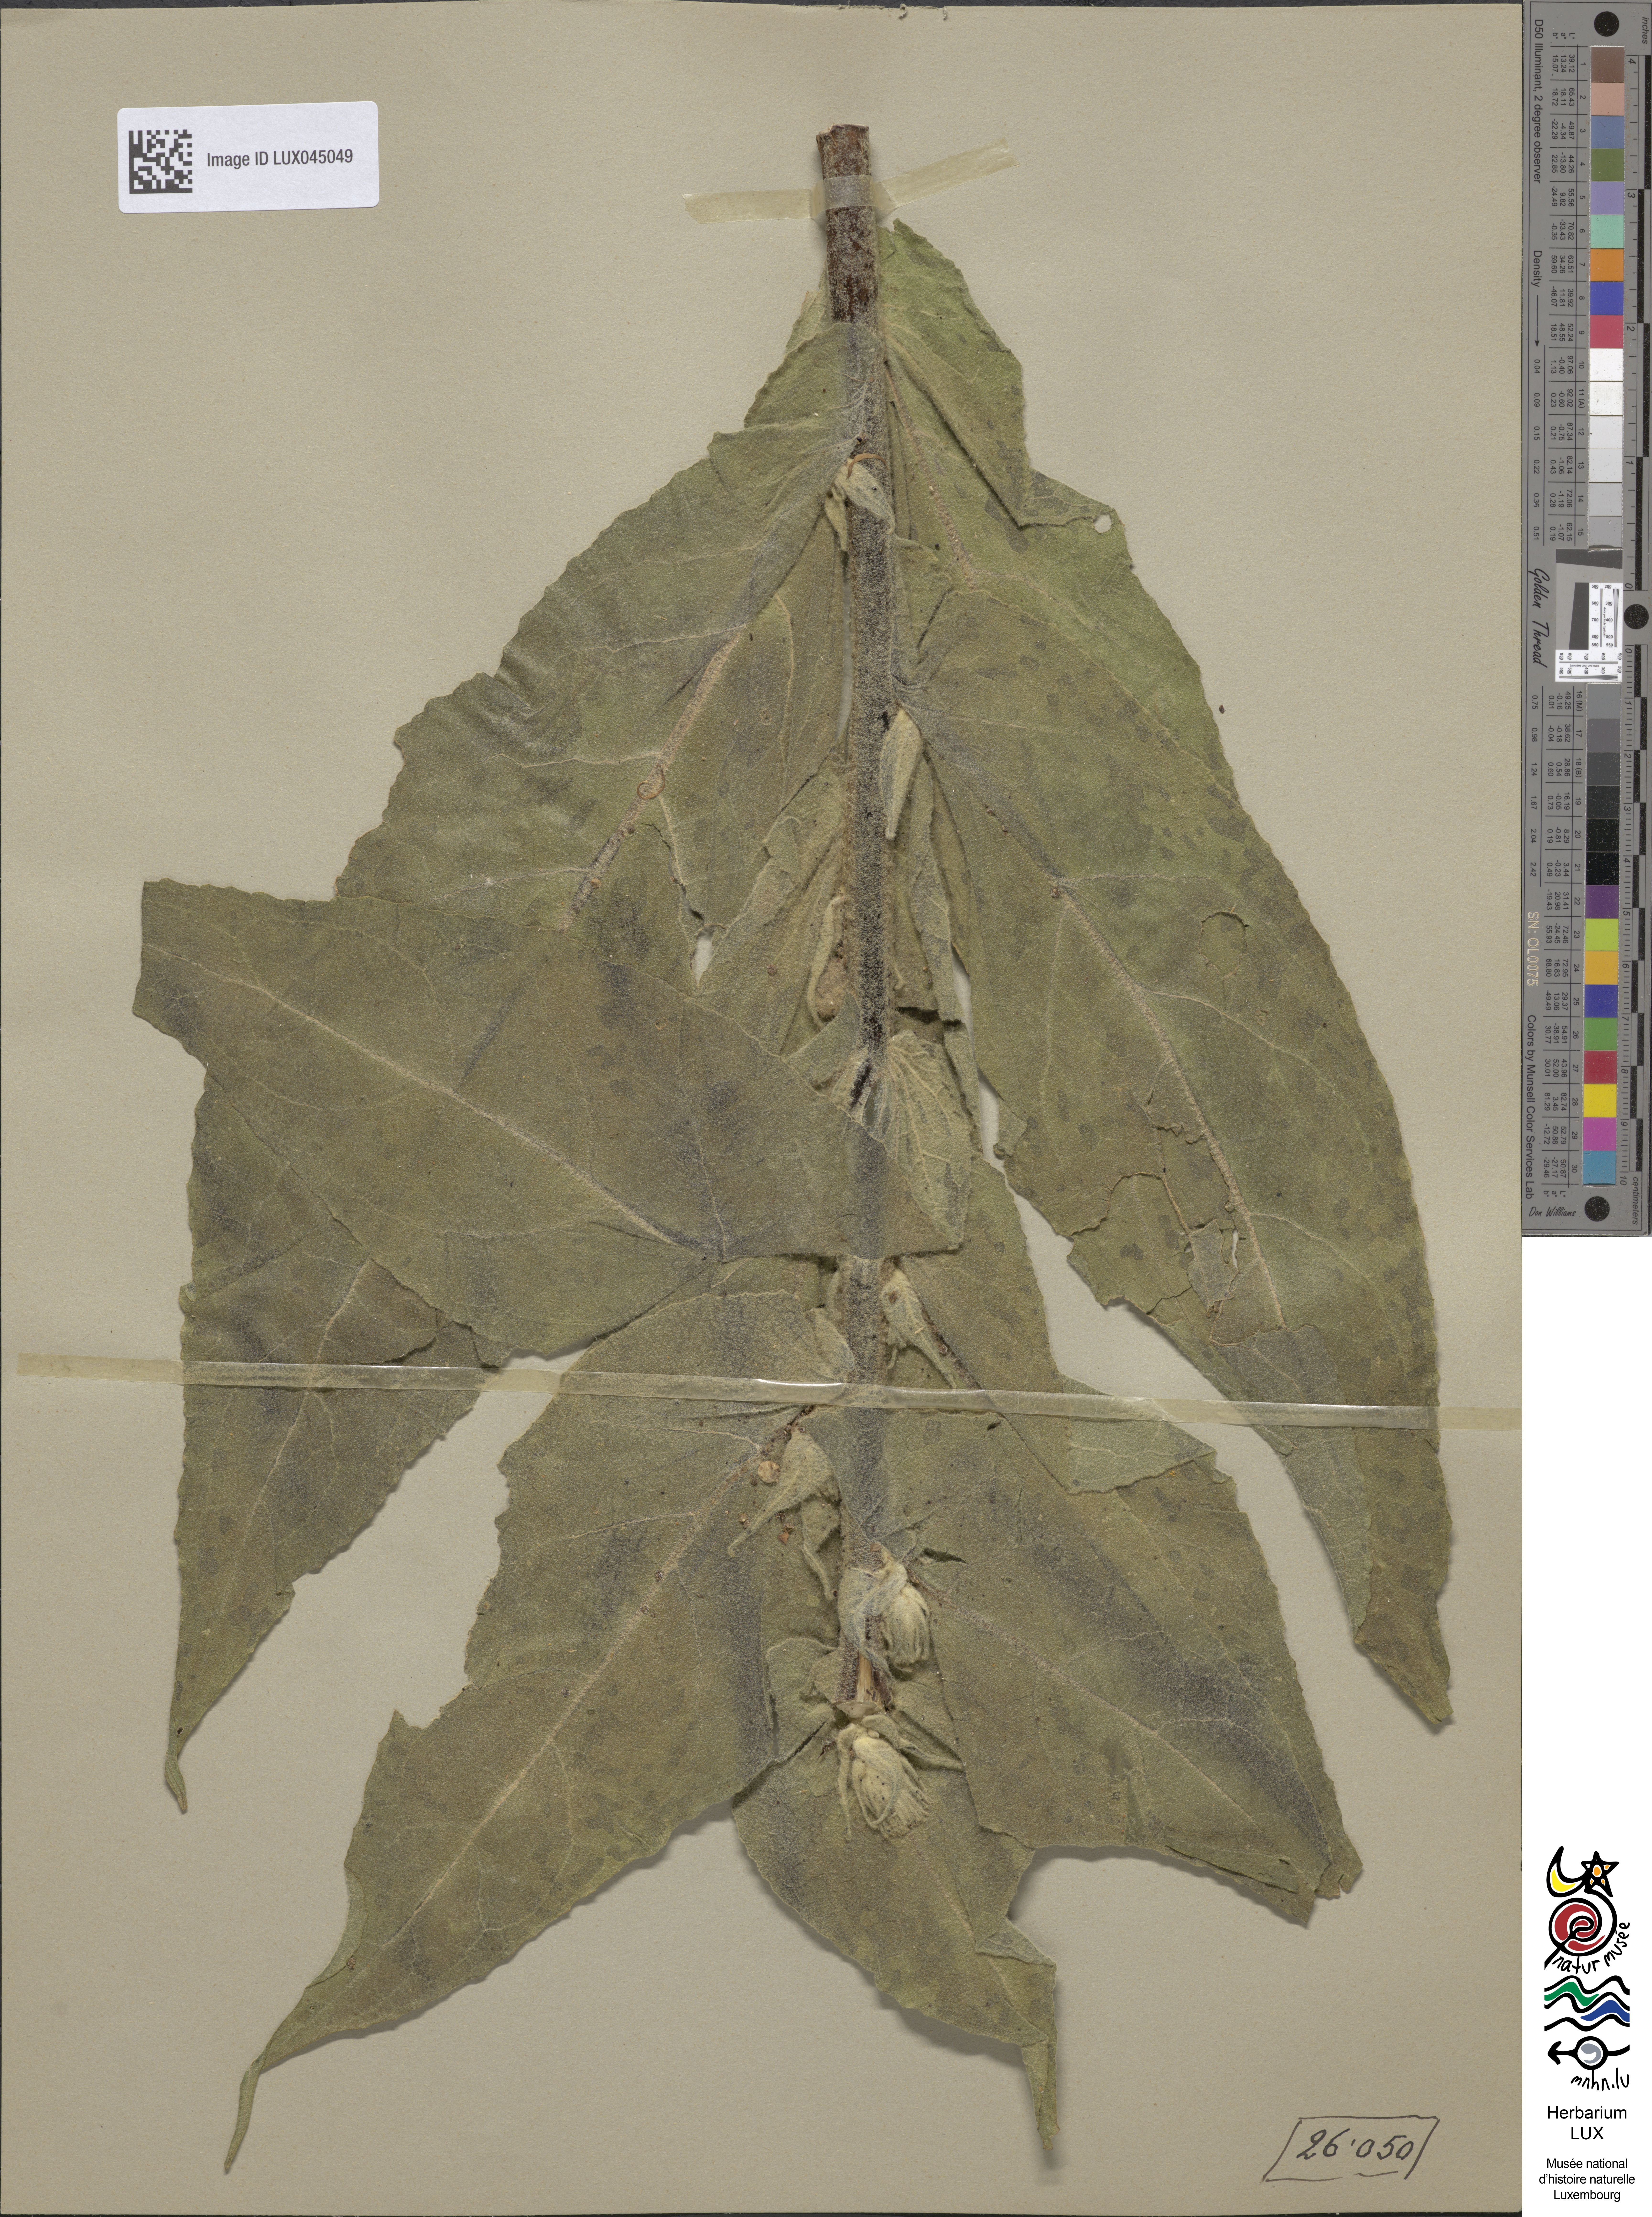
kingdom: Plantae
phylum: Tracheophyta
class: Magnoliopsida
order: Lamiales
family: Scrophulariaceae
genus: Verbascum
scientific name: Verbascum densiflorum
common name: Dense-flowered mullein
